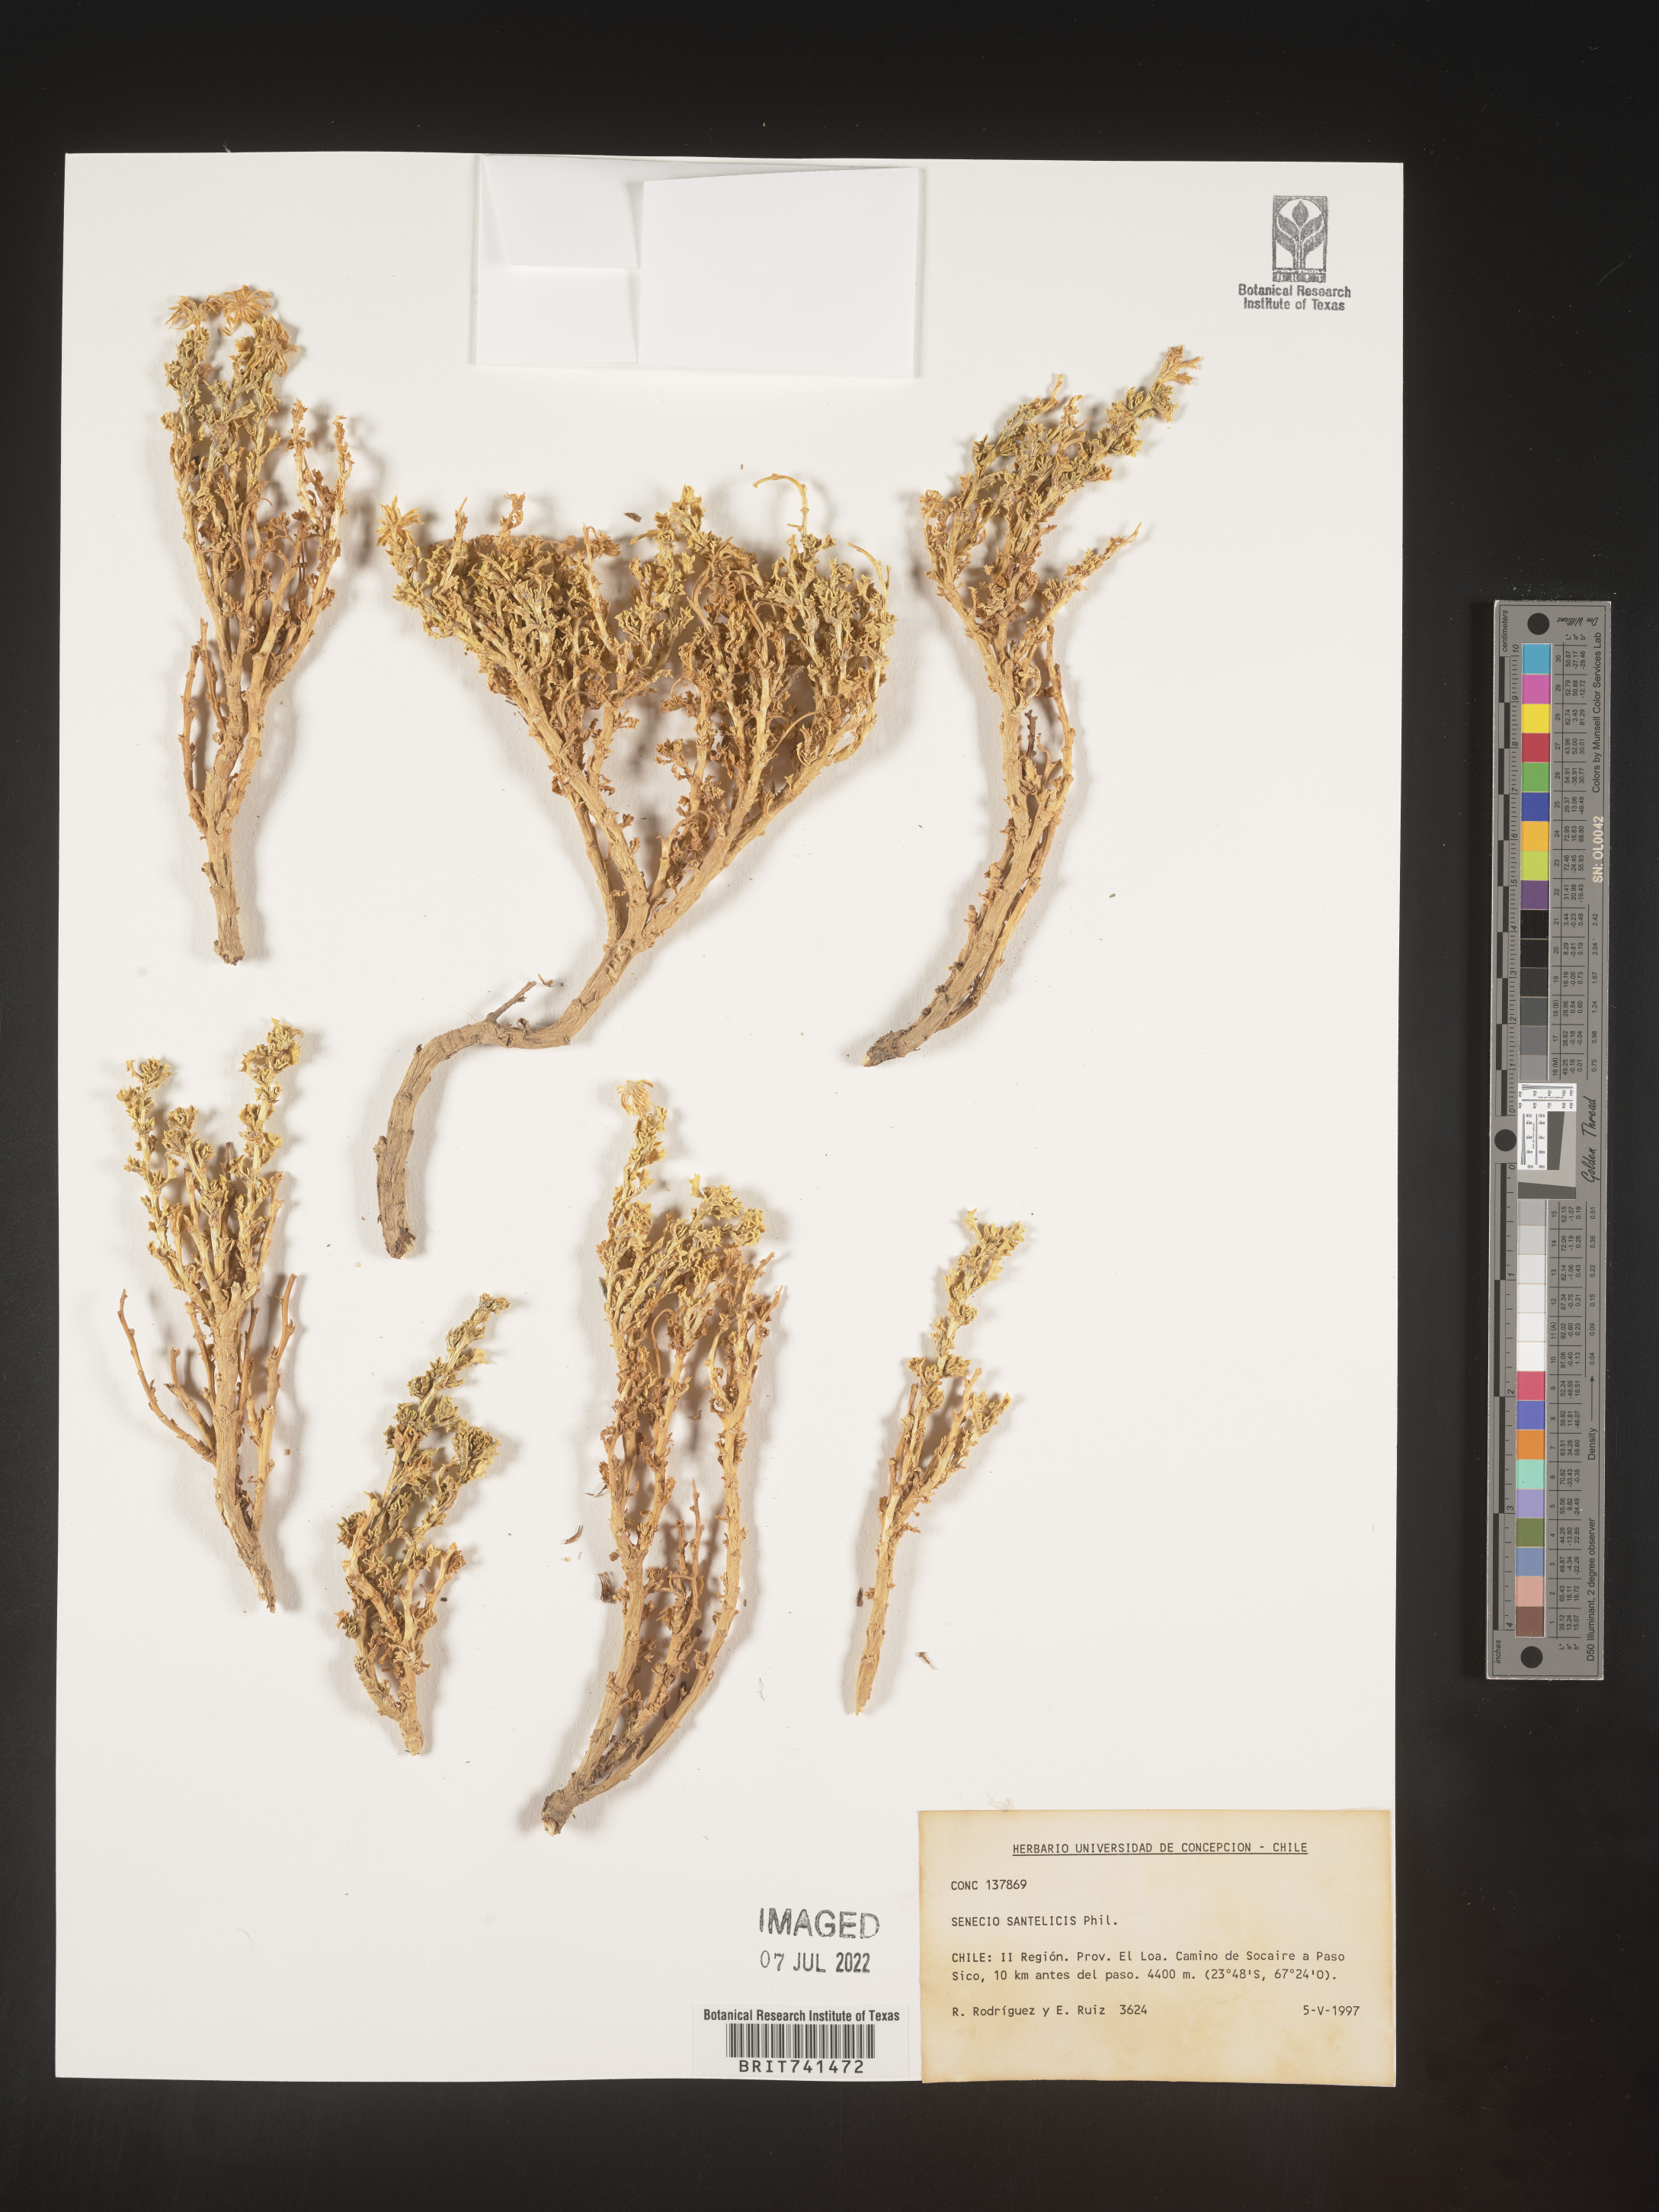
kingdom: Plantae
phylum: Tracheophyta
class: Magnoliopsida
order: Asterales
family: Asteraceae
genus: Senecio
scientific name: Senecio
